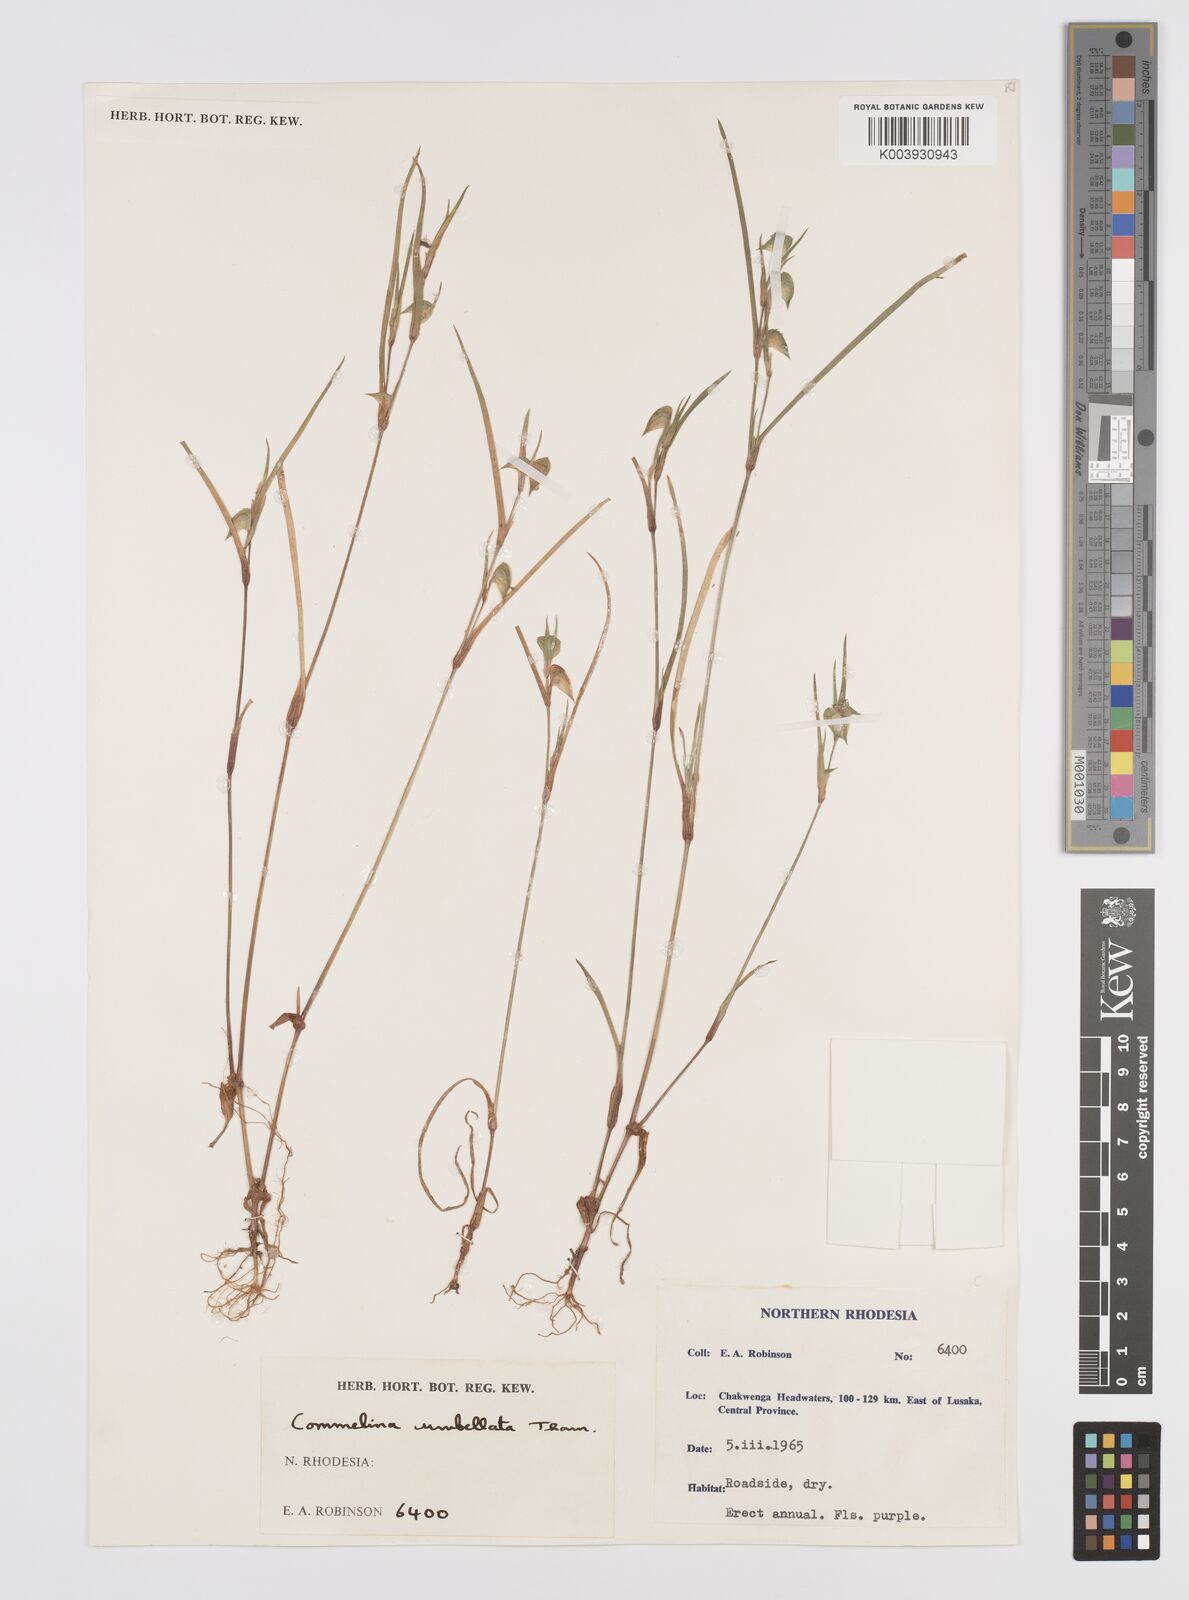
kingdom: Plantae
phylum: Tracheophyta
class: Liliopsida
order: Commelinales
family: Commelinaceae
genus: Commelina
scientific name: Commelina nigritana
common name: African dayflower
